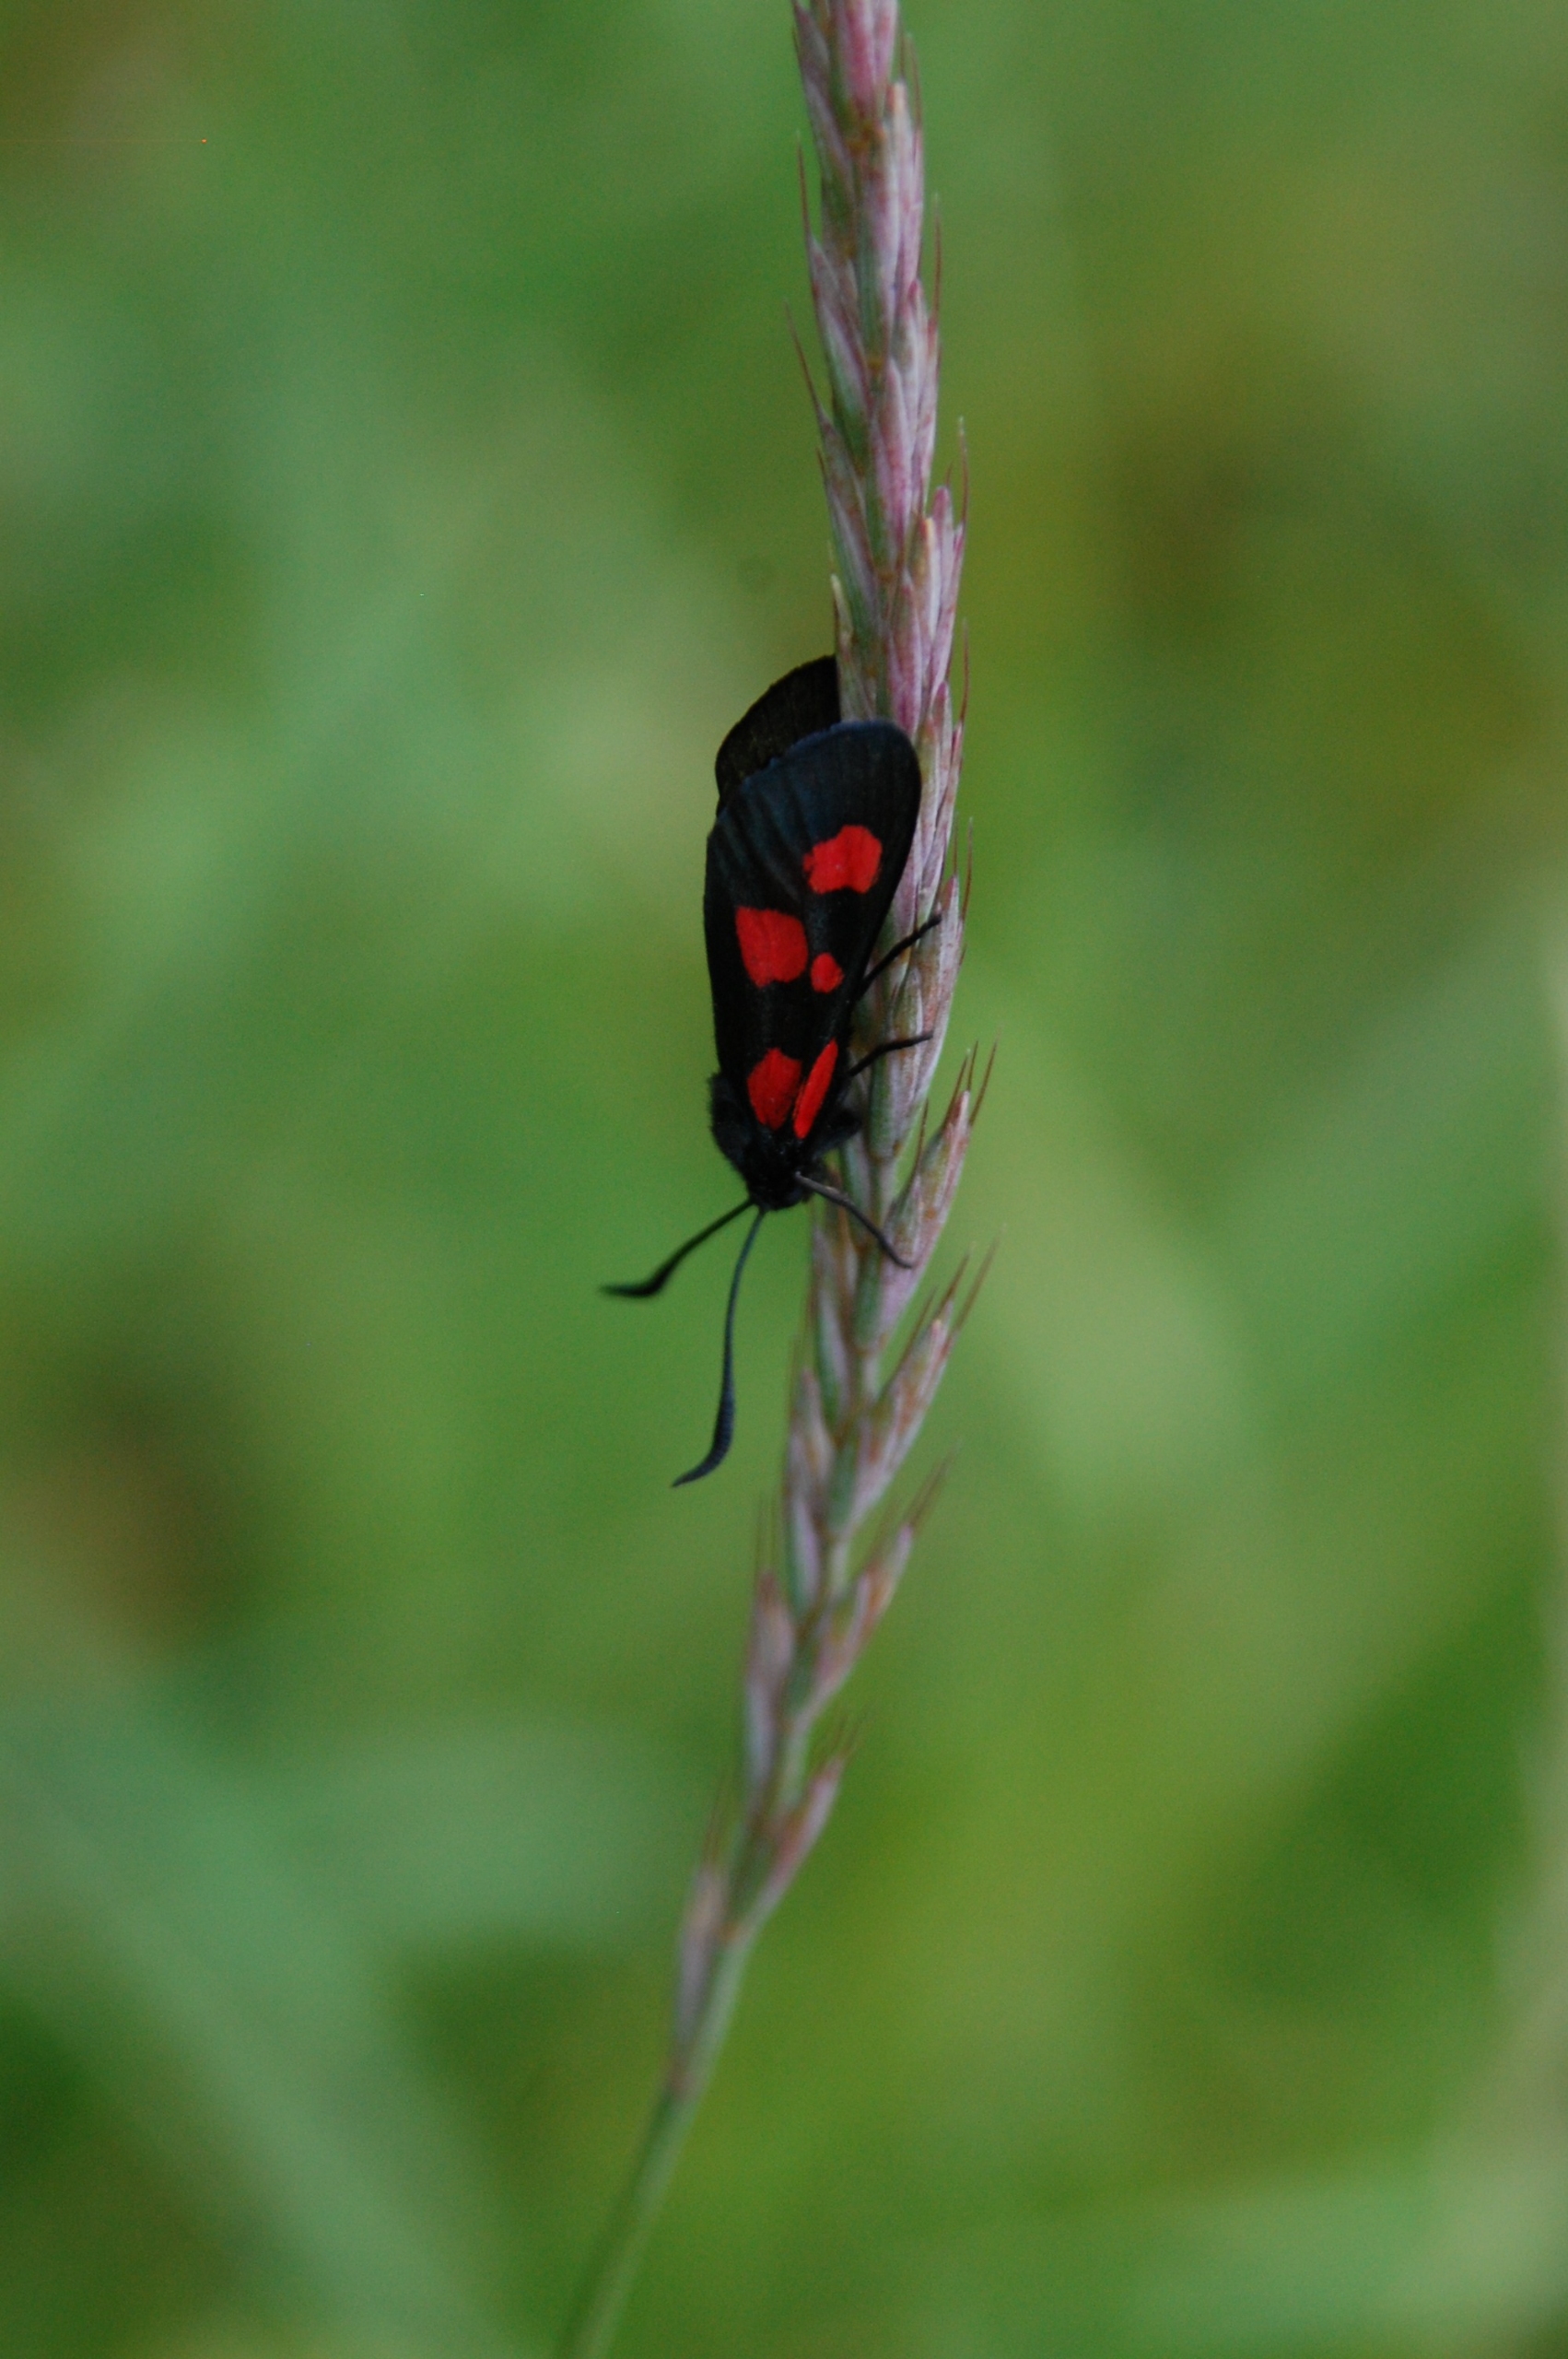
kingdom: Animalia
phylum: Arthropoda
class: Insecta
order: Lepidoptera
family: Zygaenidae
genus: Zygaena
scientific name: Zygaena lonicerae
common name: Femplettet køllesværmer
